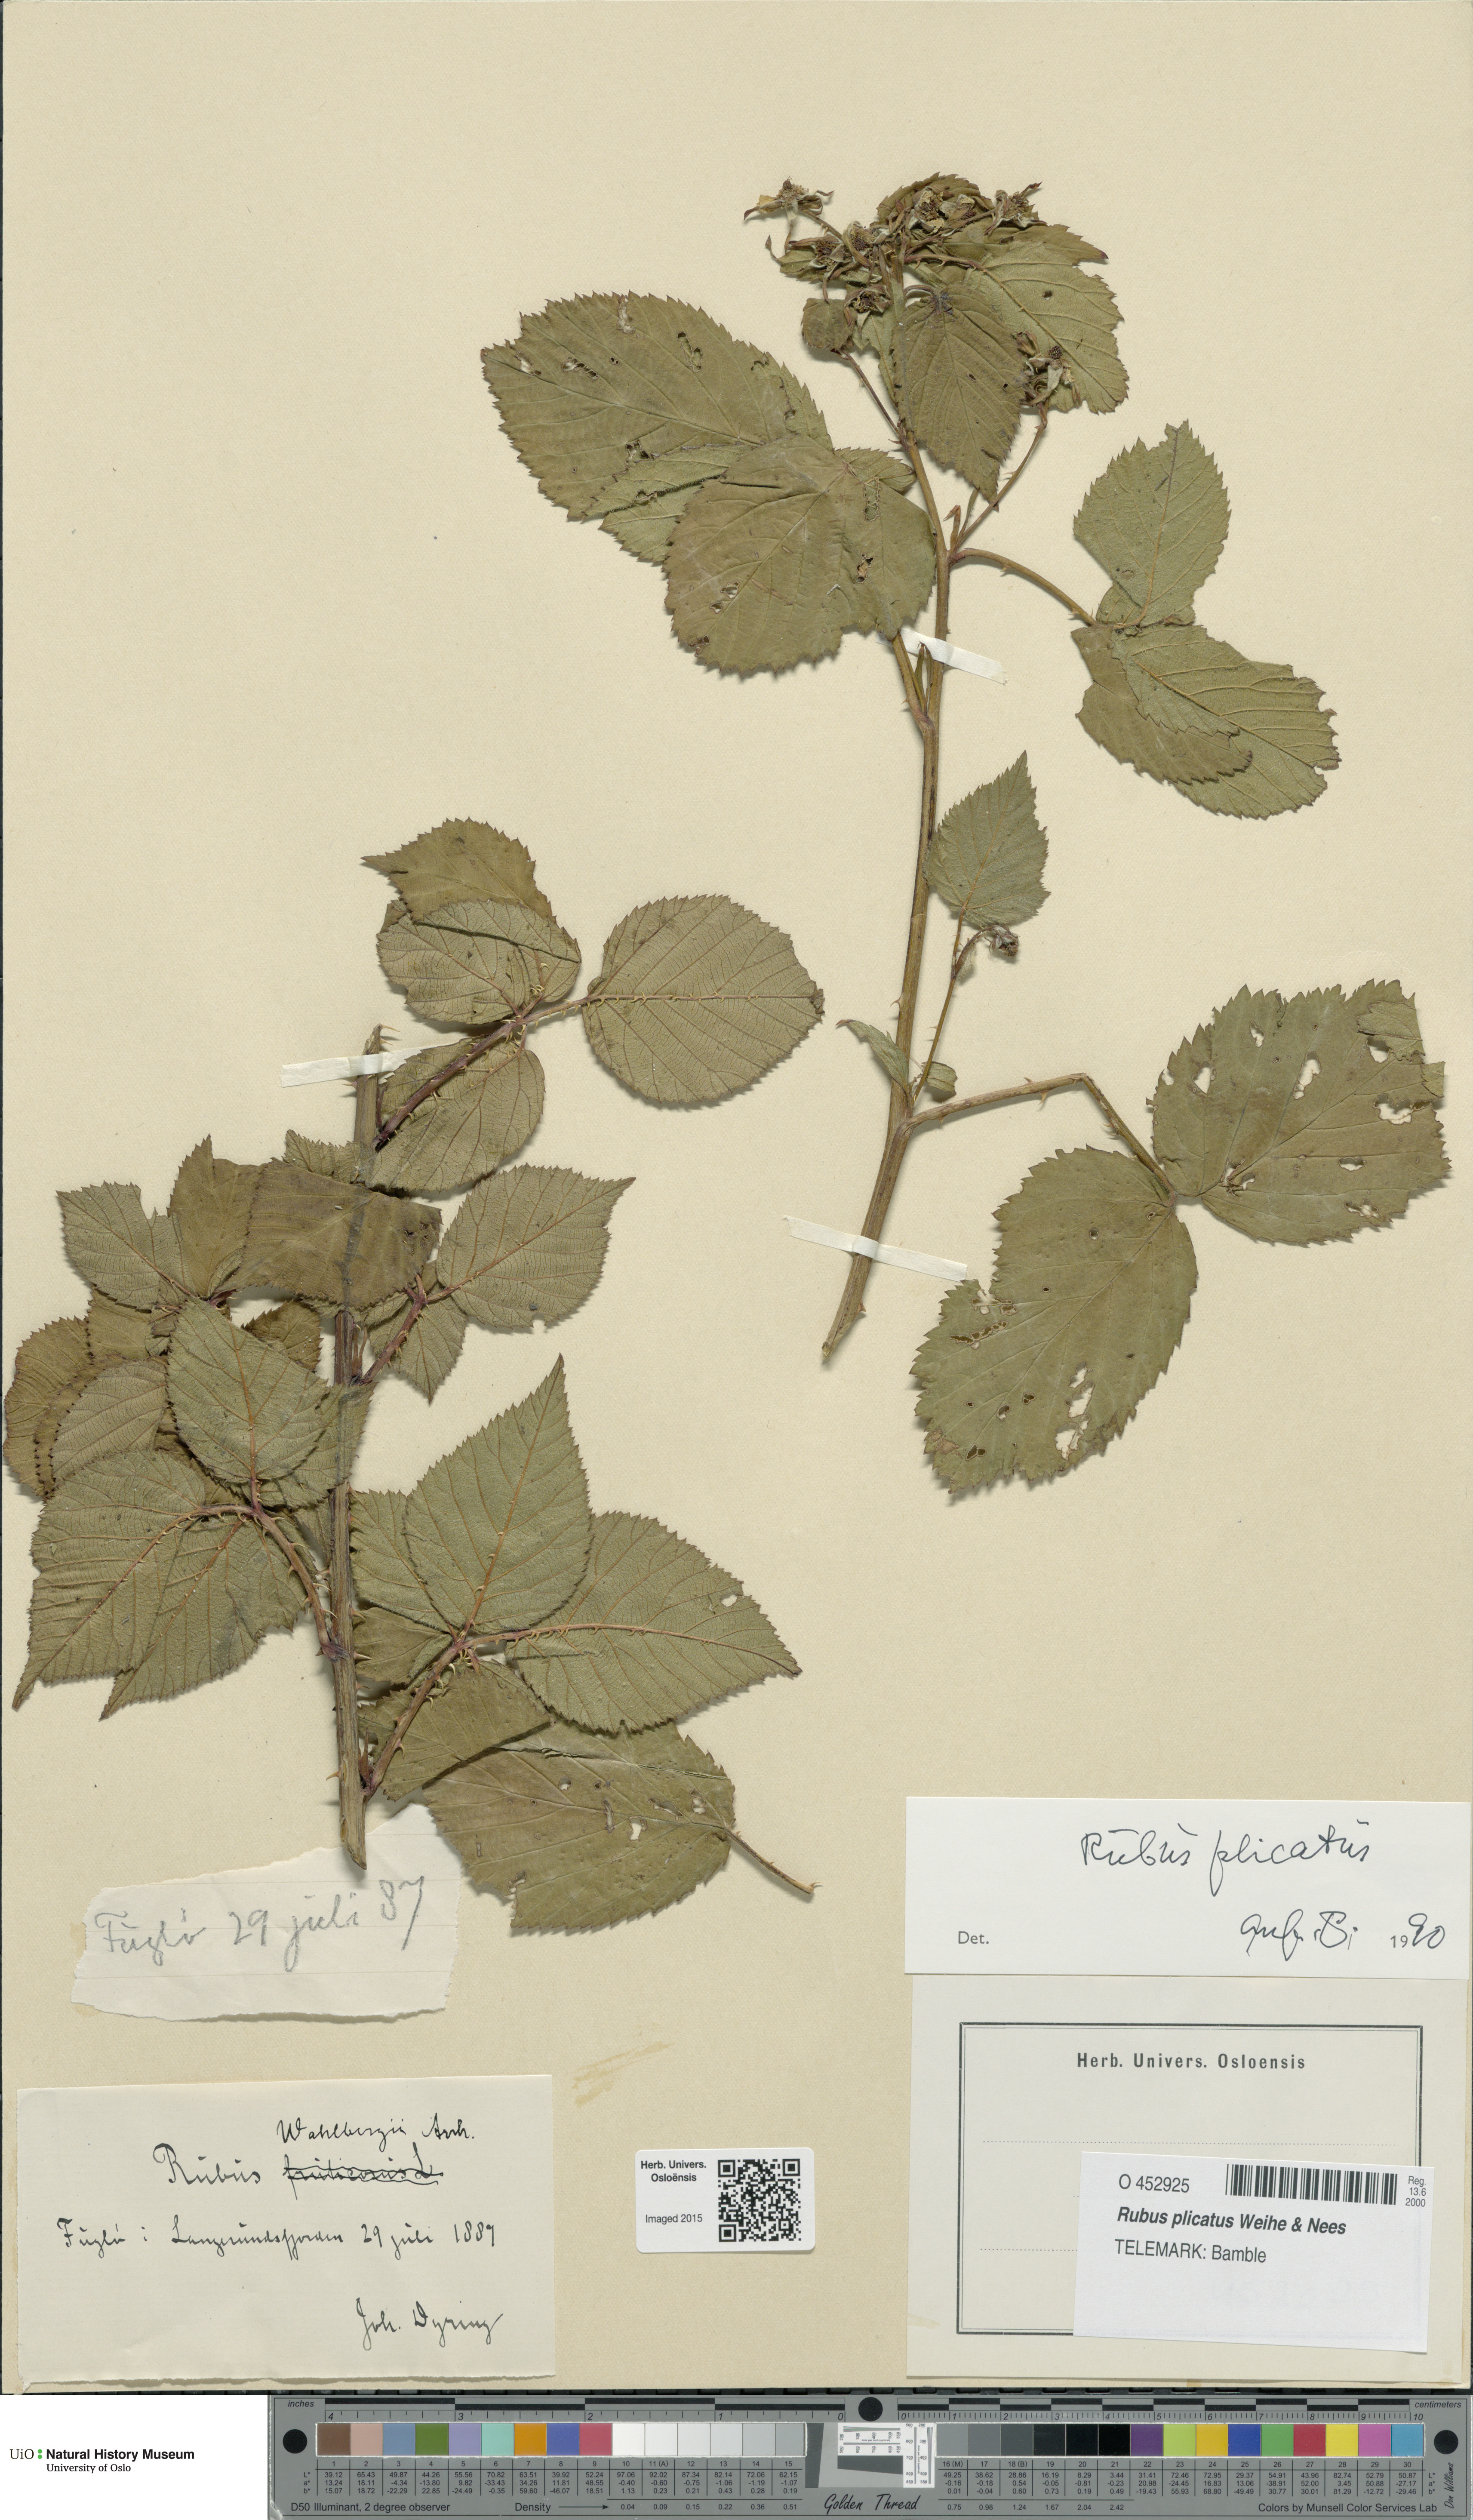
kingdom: Plantae
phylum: Tracheophyta
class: Magnoliopsida
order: Rosales
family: Rosaceae
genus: Rubus
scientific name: Rubus fruticosus
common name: Blackberry, bramble
